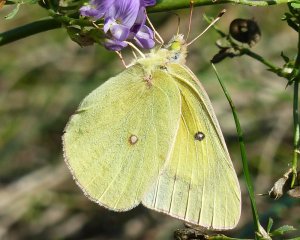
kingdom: Animalia
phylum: Arthropoda
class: Insecta
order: Lepidoptera
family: Pieridae
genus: Colias
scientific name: Colias philodice
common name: Clouded Sulphur
